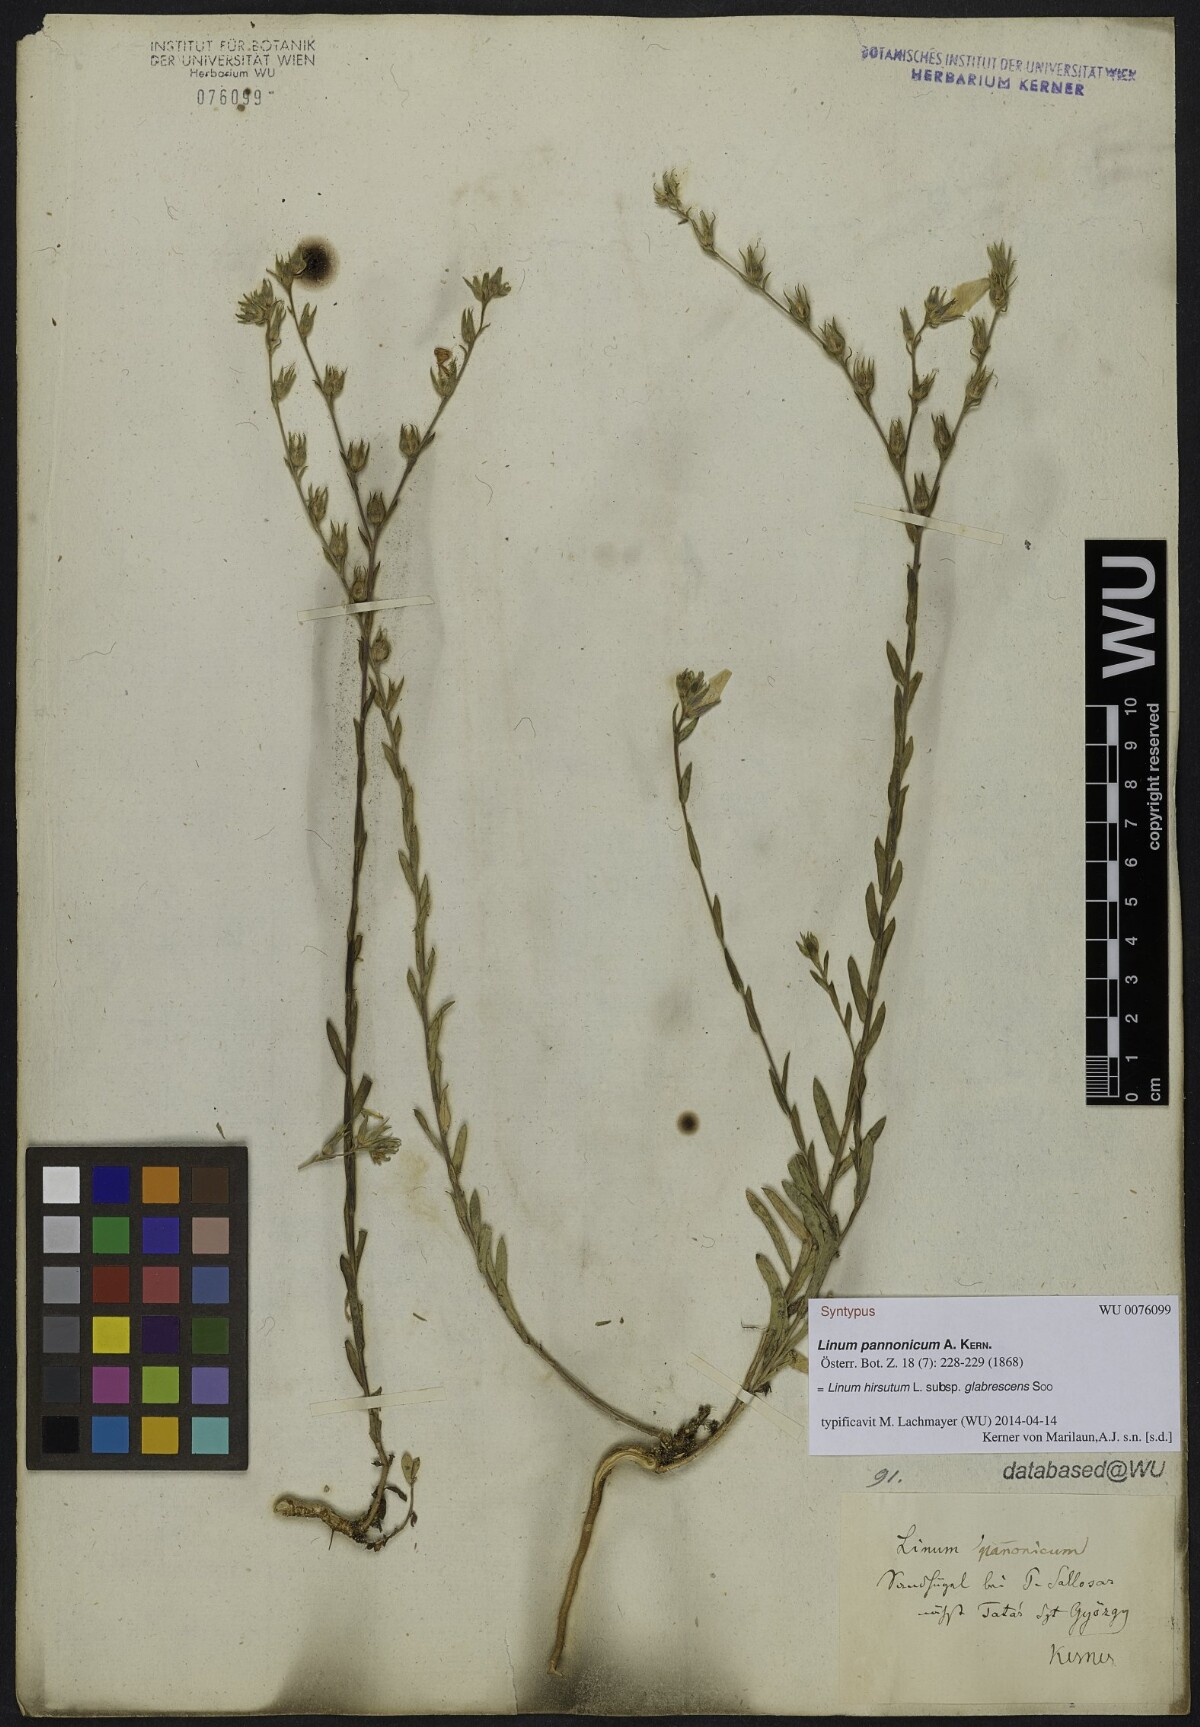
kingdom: Plantae
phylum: Tracheophyta
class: Magnoliopsida
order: Malpighiales
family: Linaceae
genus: Linum
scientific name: Linum hirsutum
